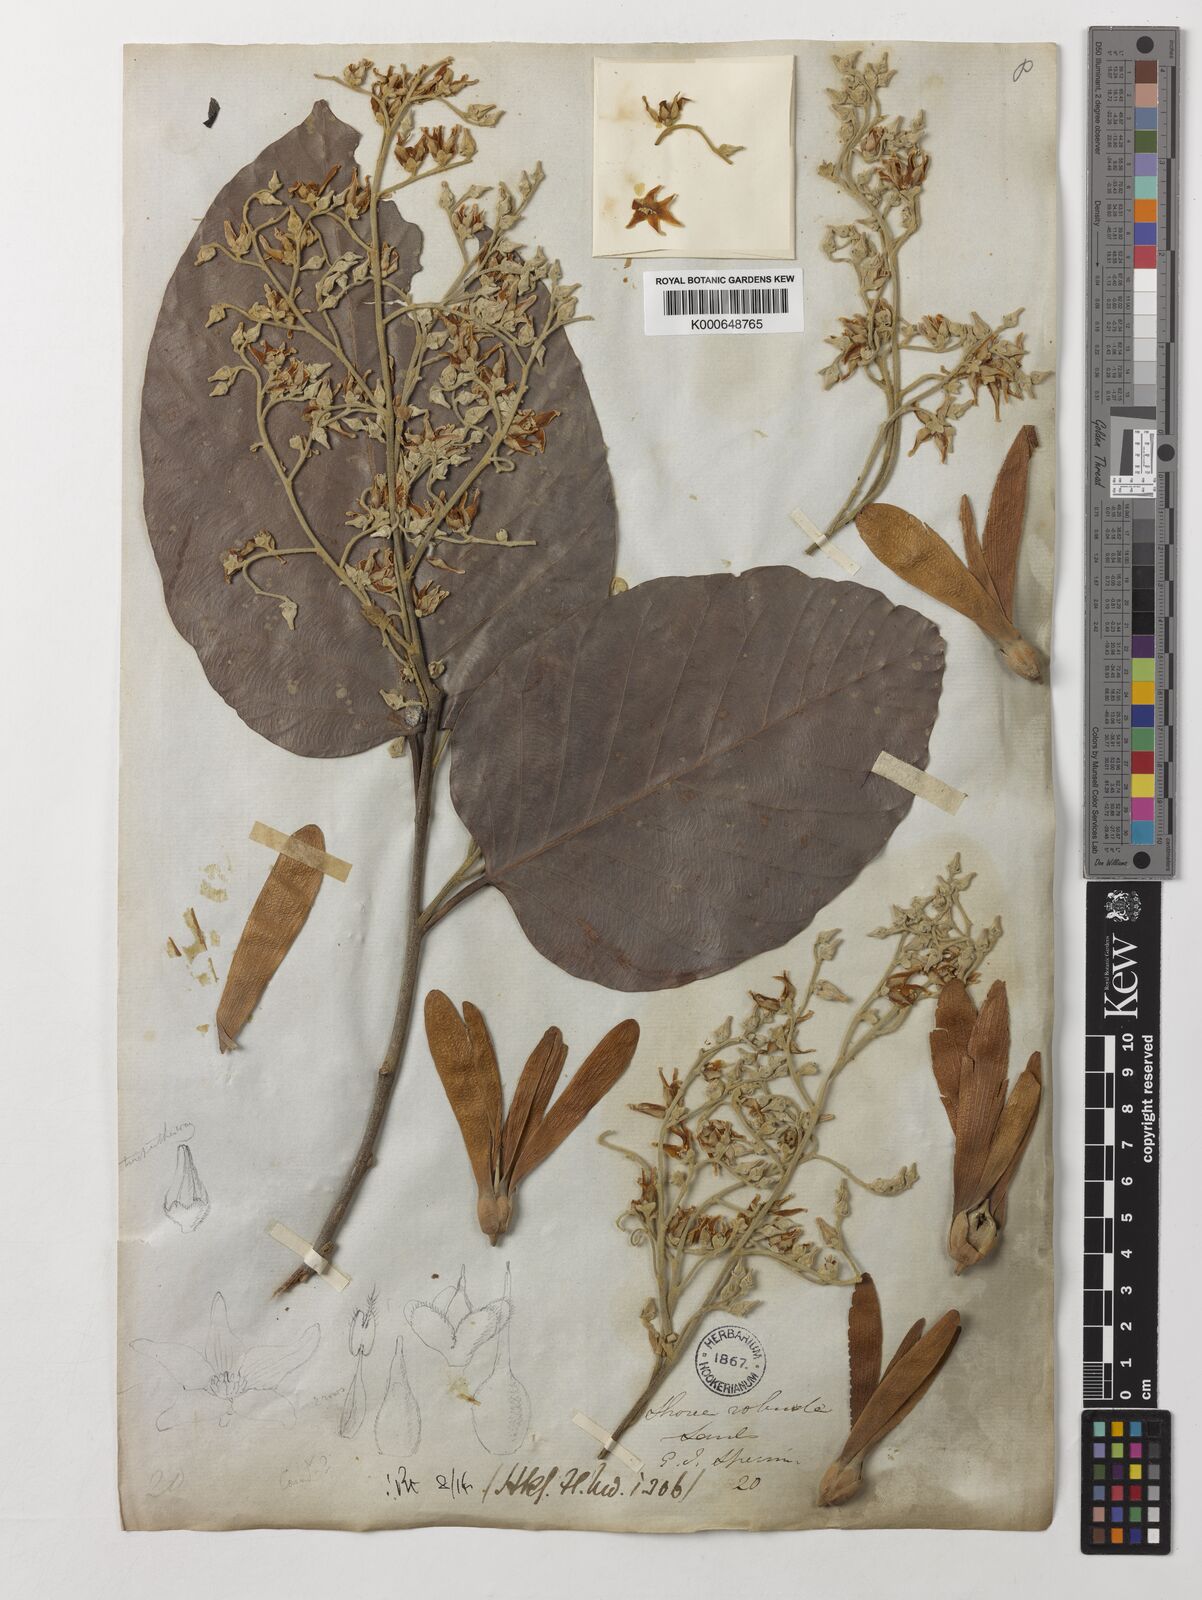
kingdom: Plantae
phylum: Tracheophyta
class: Magnoliopsida
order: Malvales
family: Dipterocarpaceae
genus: Shorea
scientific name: Shorea robusta
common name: Saltree
